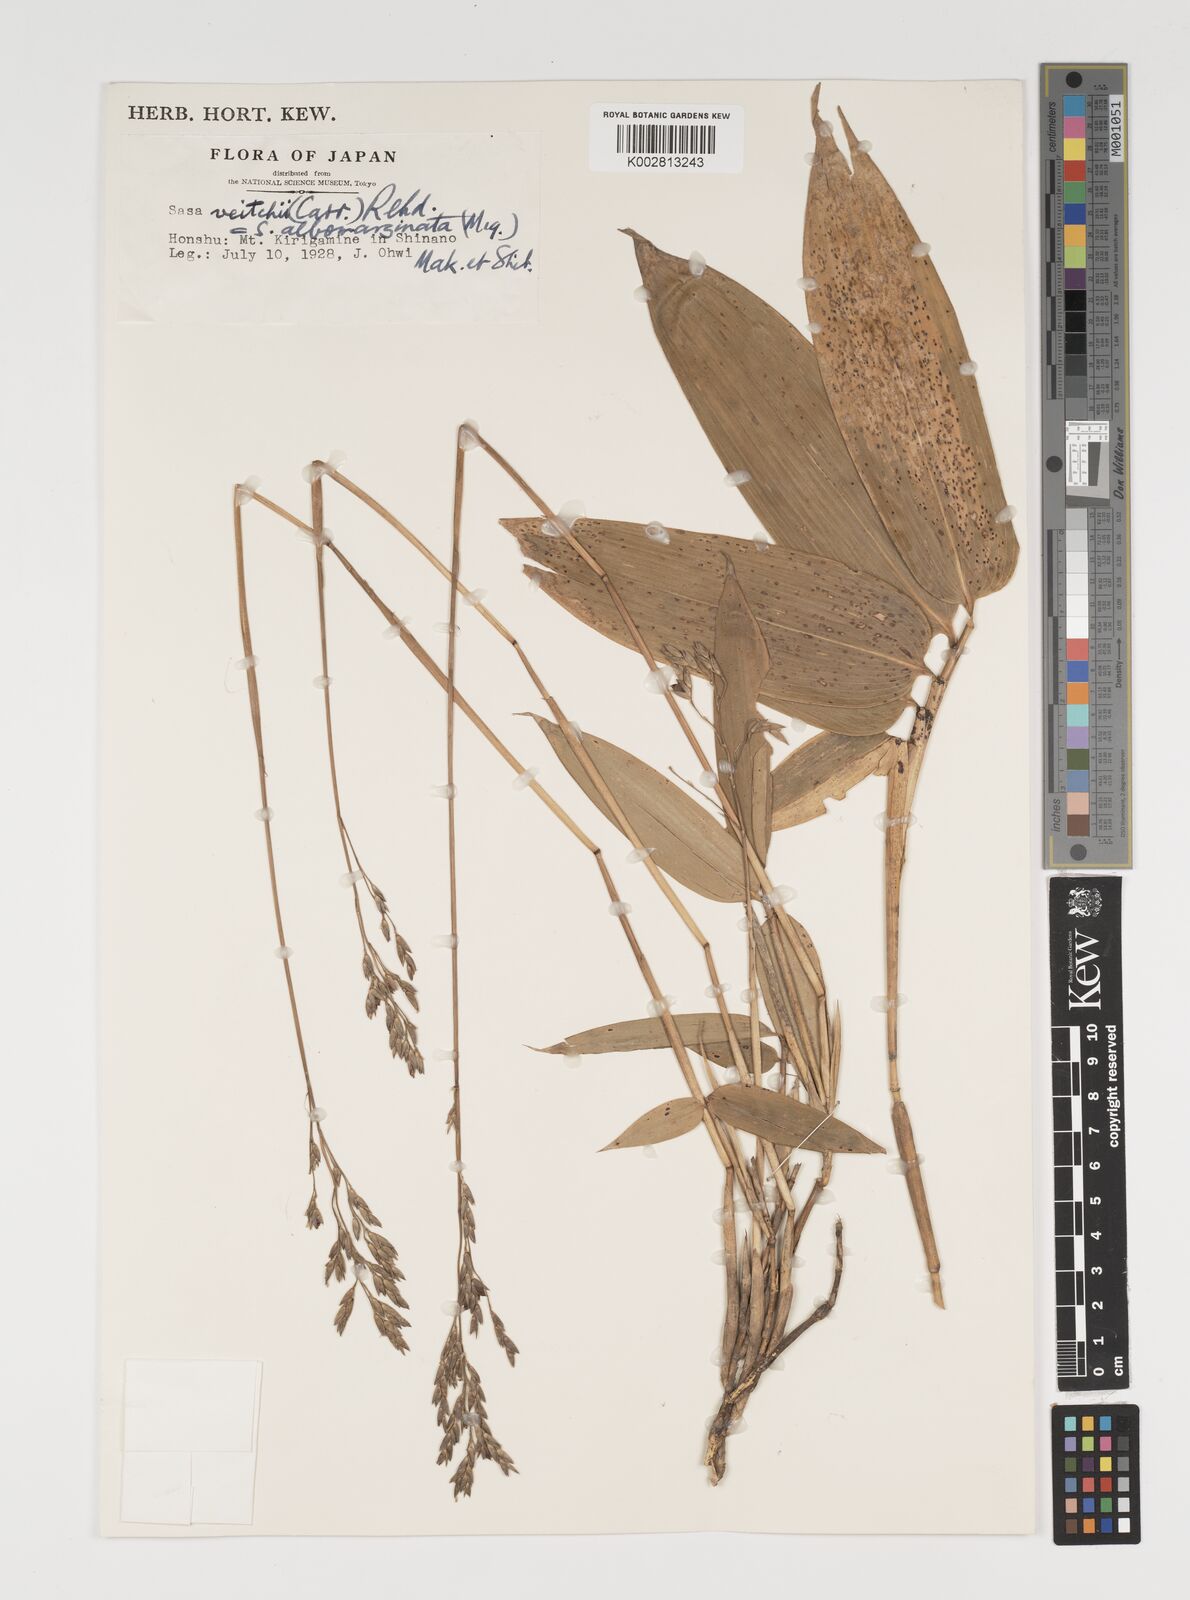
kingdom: Plantae
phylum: Tracheophyta
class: Liliopsida
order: Poales
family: Poaceae
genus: Sasa
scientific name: Sasa veitchii
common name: Veitch's bamboo
